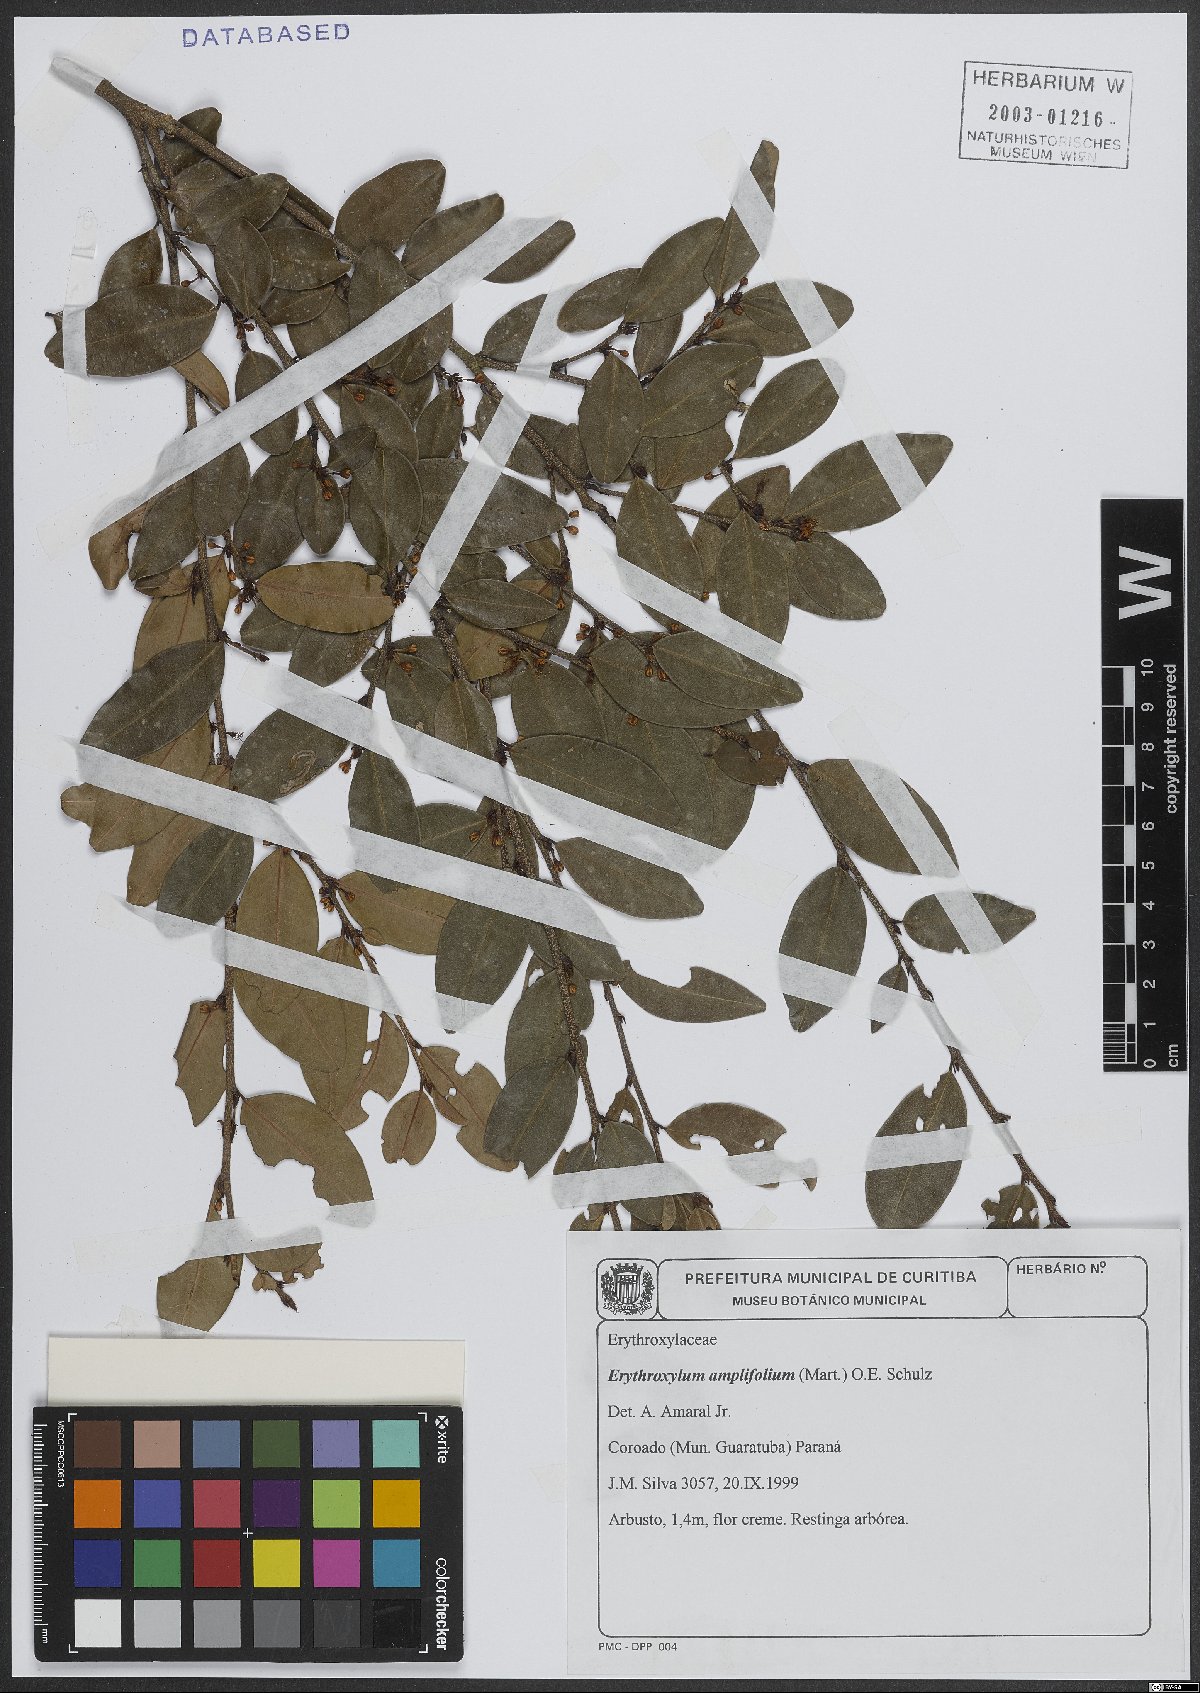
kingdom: Plantae
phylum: Tracheophyta
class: Magnoliopsida
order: Malpighiales
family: Erythroxylaceae
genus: Erythroxylum
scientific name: Erythroxylum umbu
